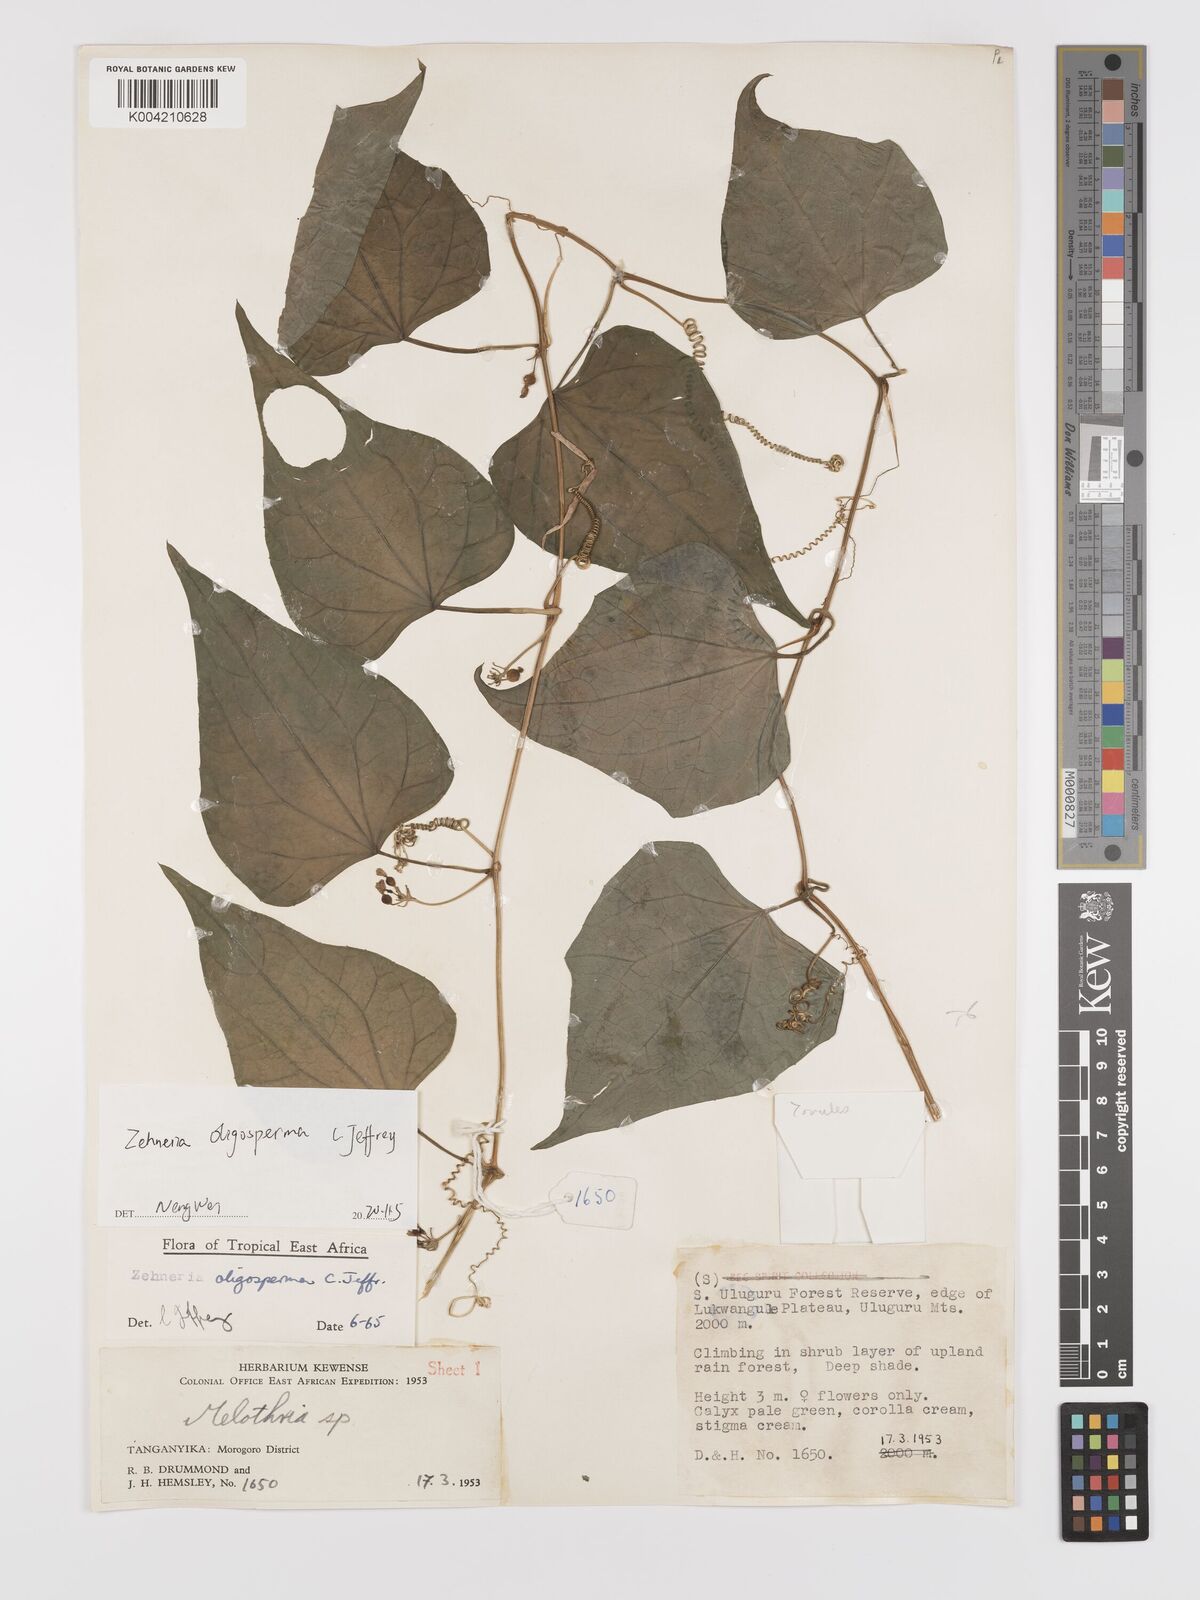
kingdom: Plantae
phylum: Tracheophyta
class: Magnoliopsida
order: Cucurbitales
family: Cucurbitaceae
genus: Zehneria
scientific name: Zehneria oligosperma
